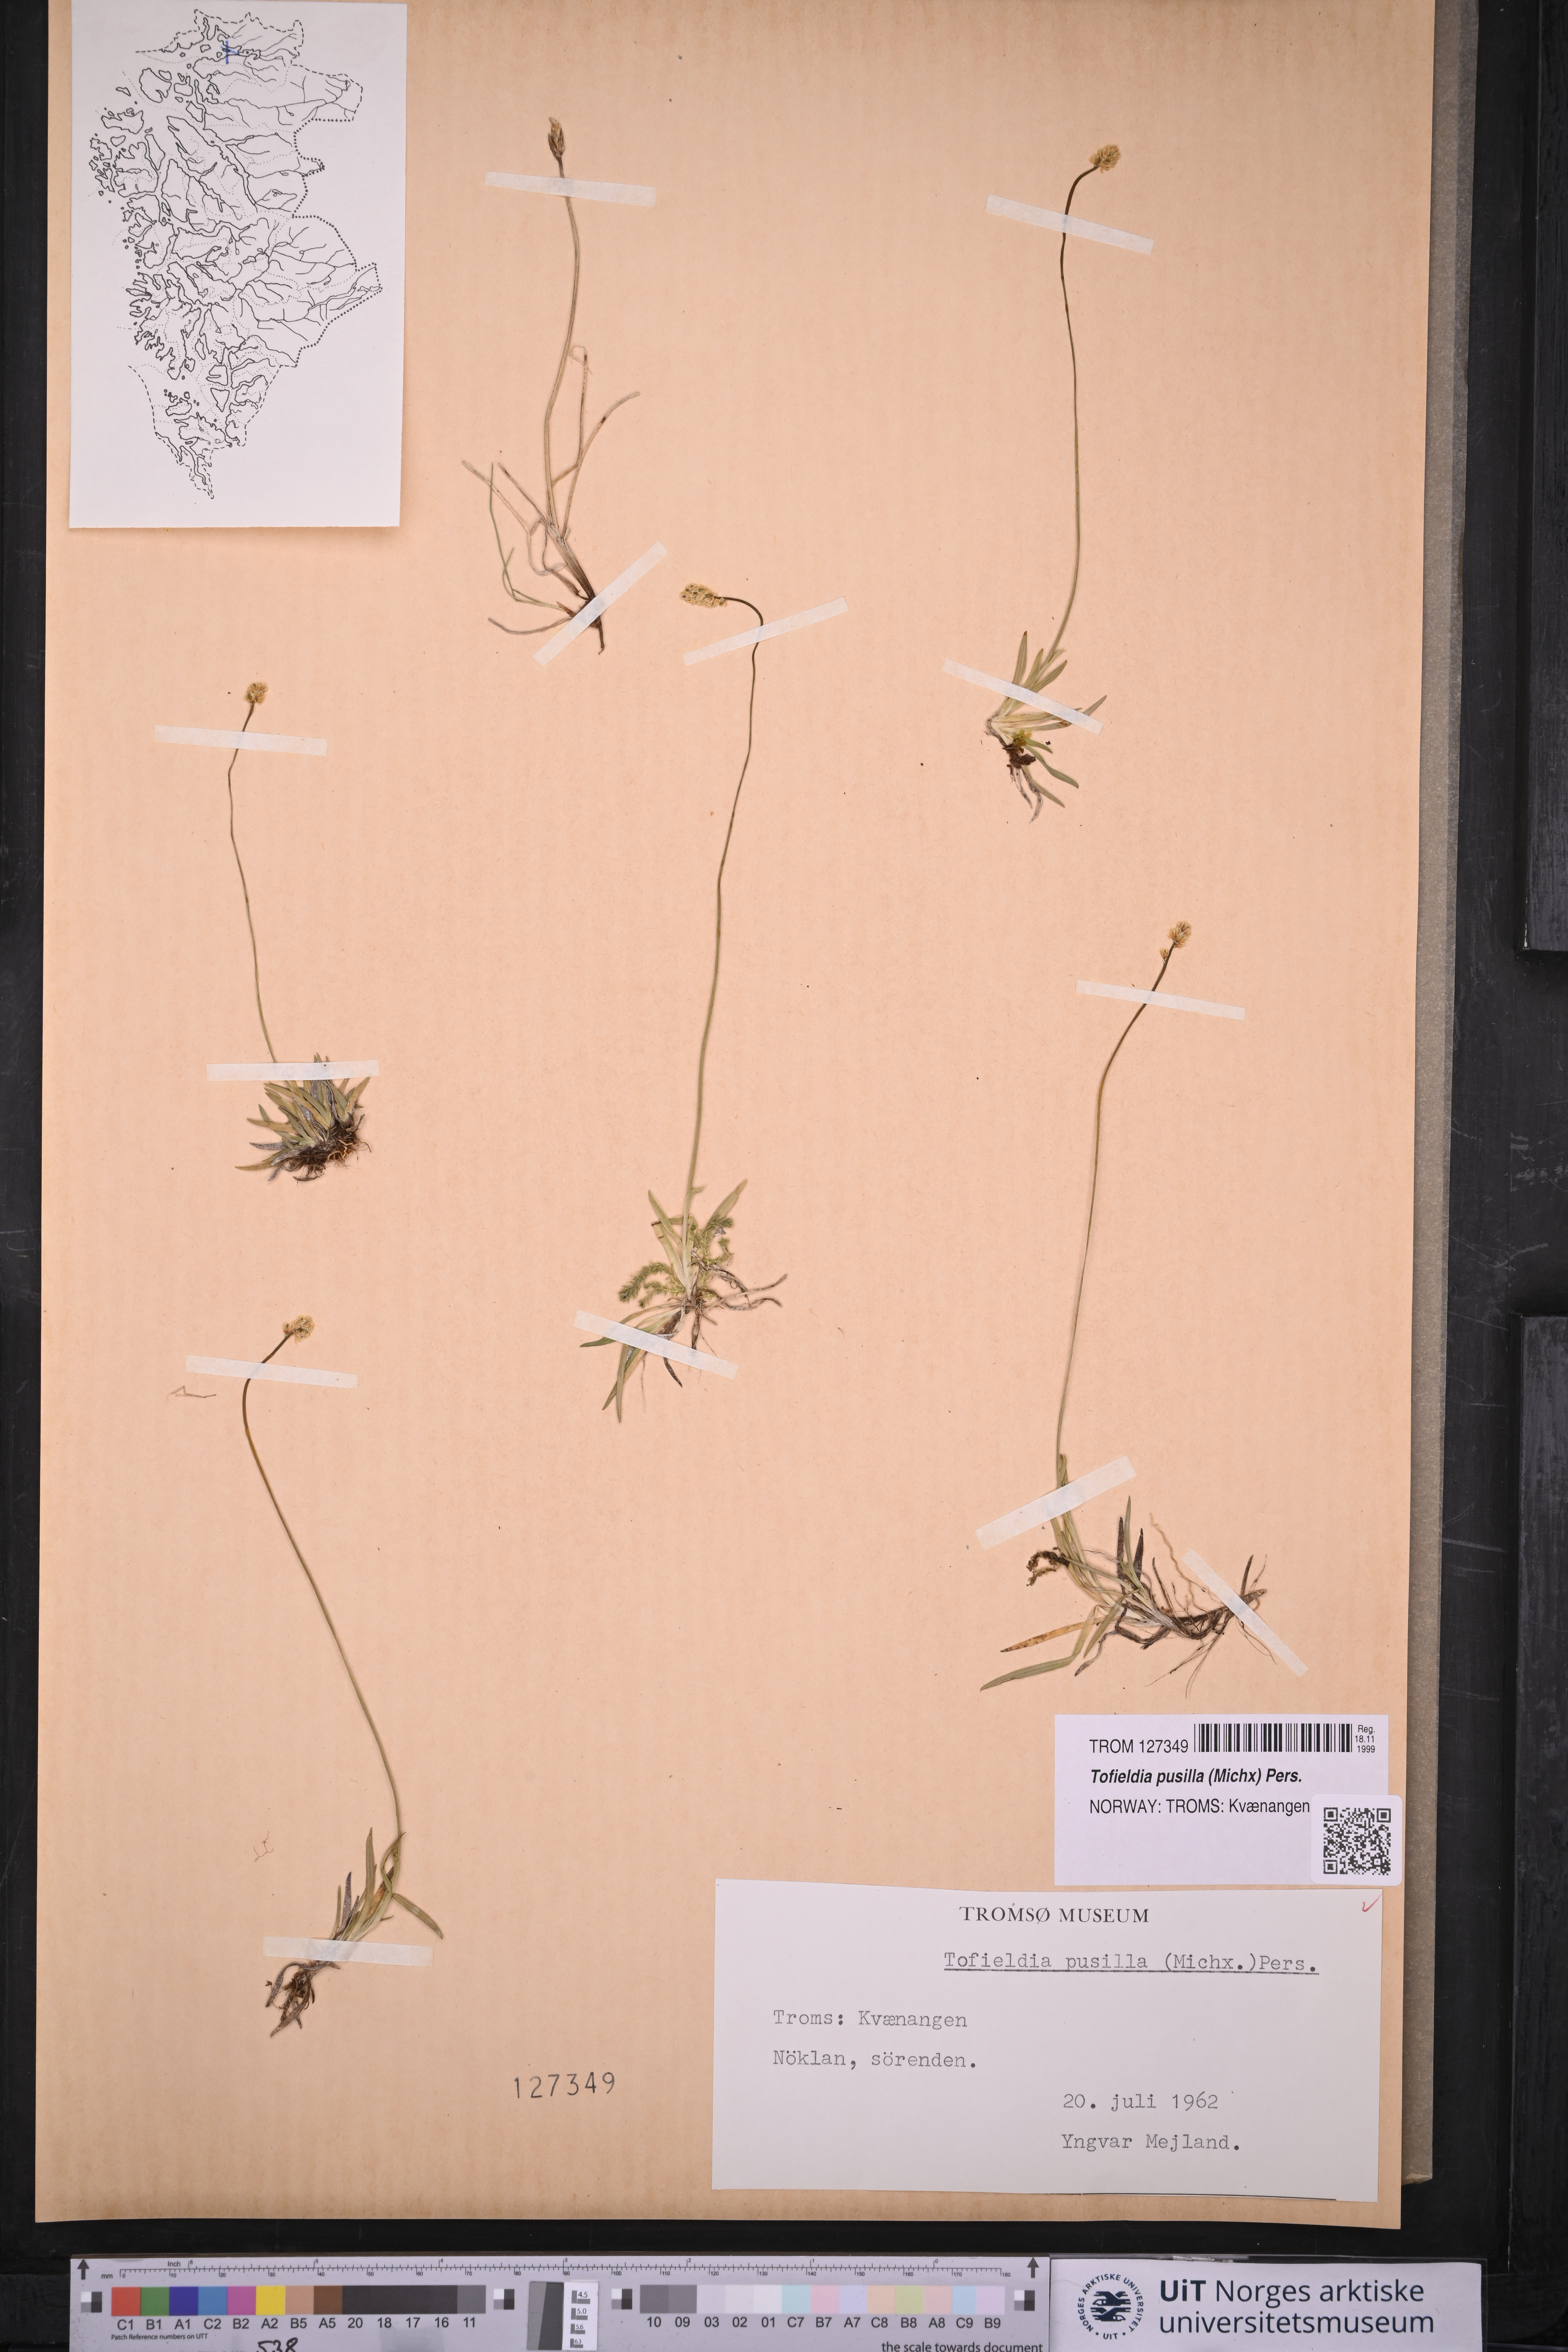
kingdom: Plantae
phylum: Tracheophyta
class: Liliopsida
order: Alismatales
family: Tofieldiaceae
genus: Tofieldia
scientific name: Tofieldia pusilla
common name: Scottish false asphodel
